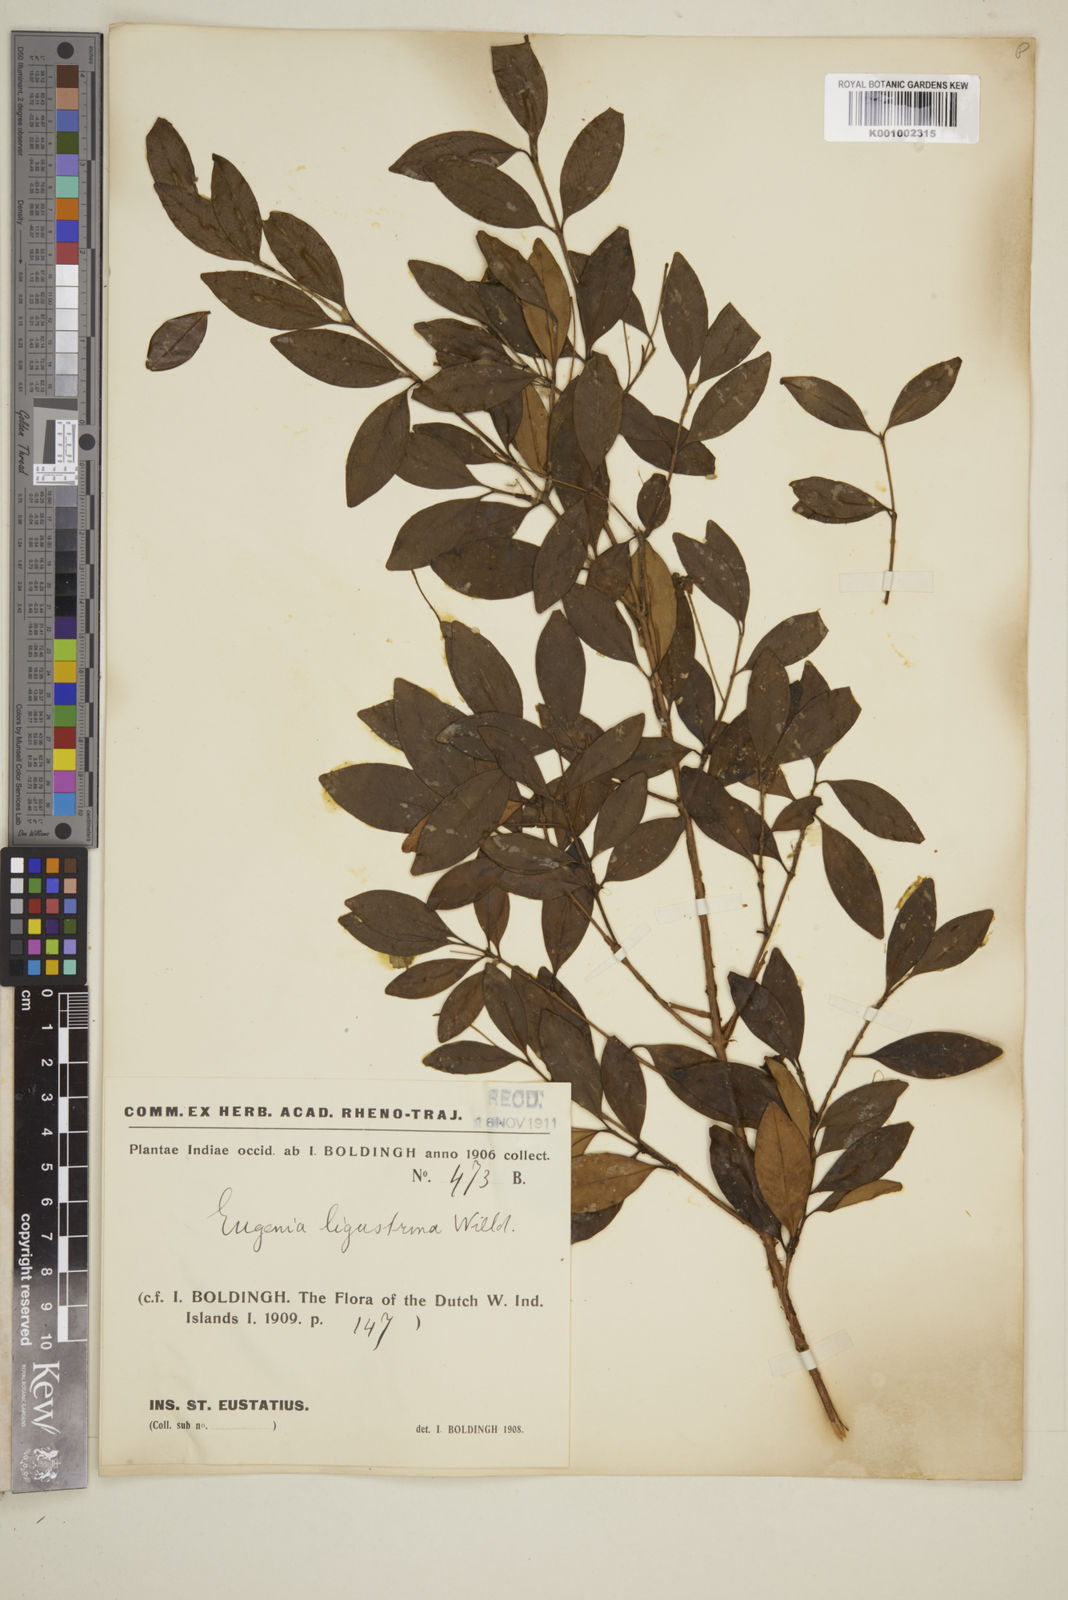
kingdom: Plantae
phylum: Tracheophyta
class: Magnoliopsida
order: Myrtales
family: Myrtaceae
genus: Eugenia
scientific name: Eugenia ligustrina
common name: Privet stopper
